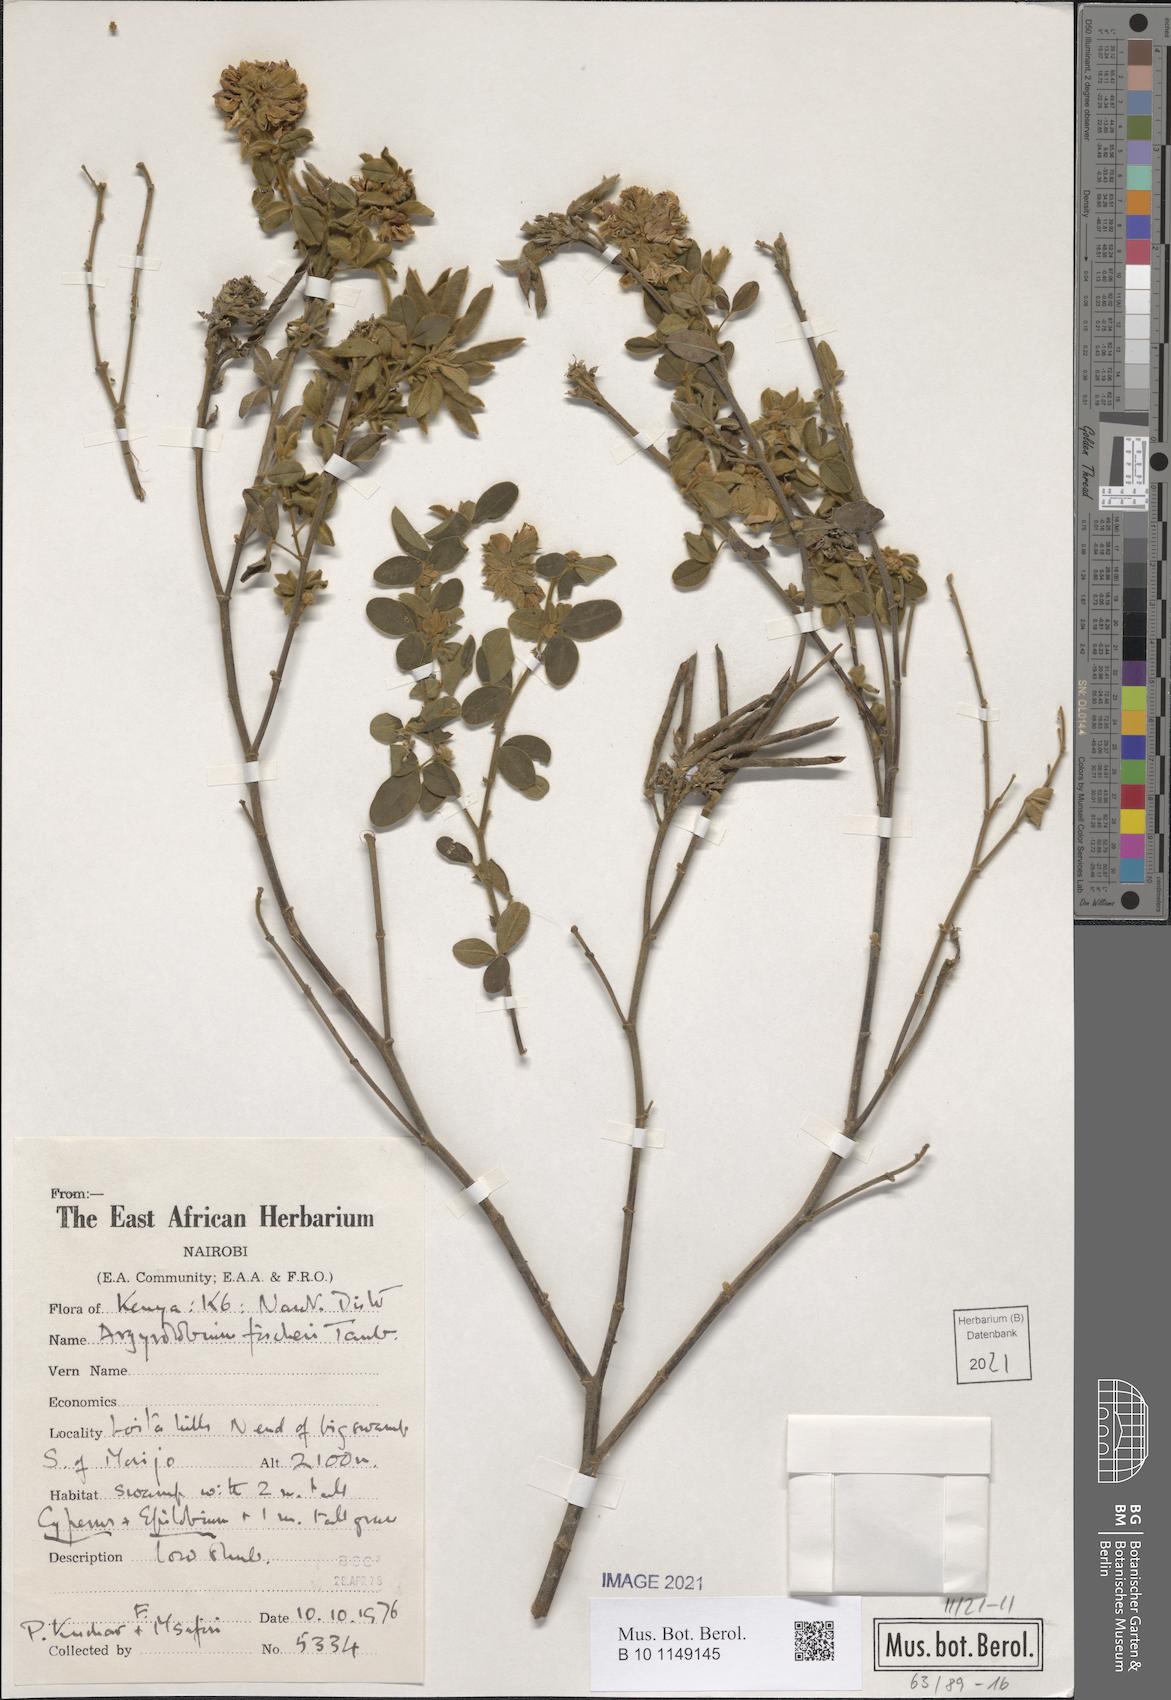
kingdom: Plantae
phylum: Tracheophyta
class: Magnoliopsida
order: Fabales
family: Fabaceae
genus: Argyrolobium
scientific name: Argyrolobium fischeri
